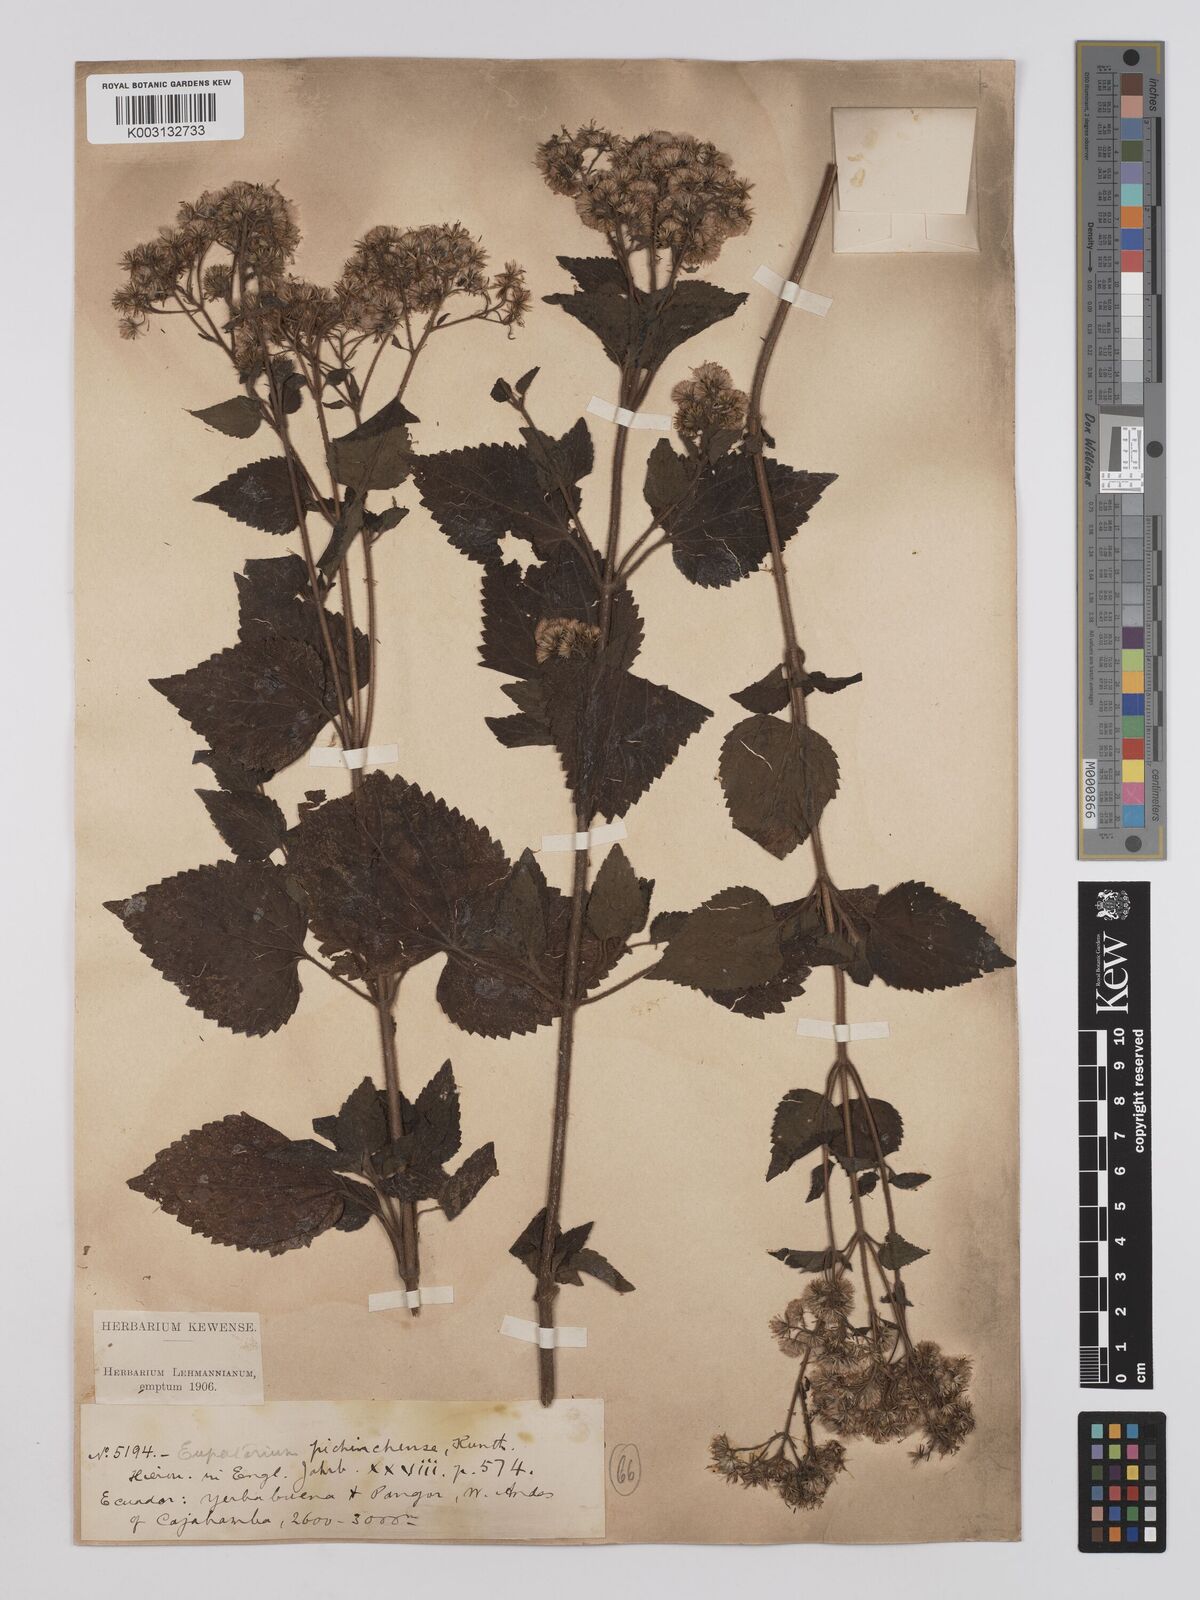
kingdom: Plantae
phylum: Tracheophyta
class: Magnoliopsida
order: Asterales
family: Asteraceae
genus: Ageratina
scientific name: Ageratina ibaguensis
